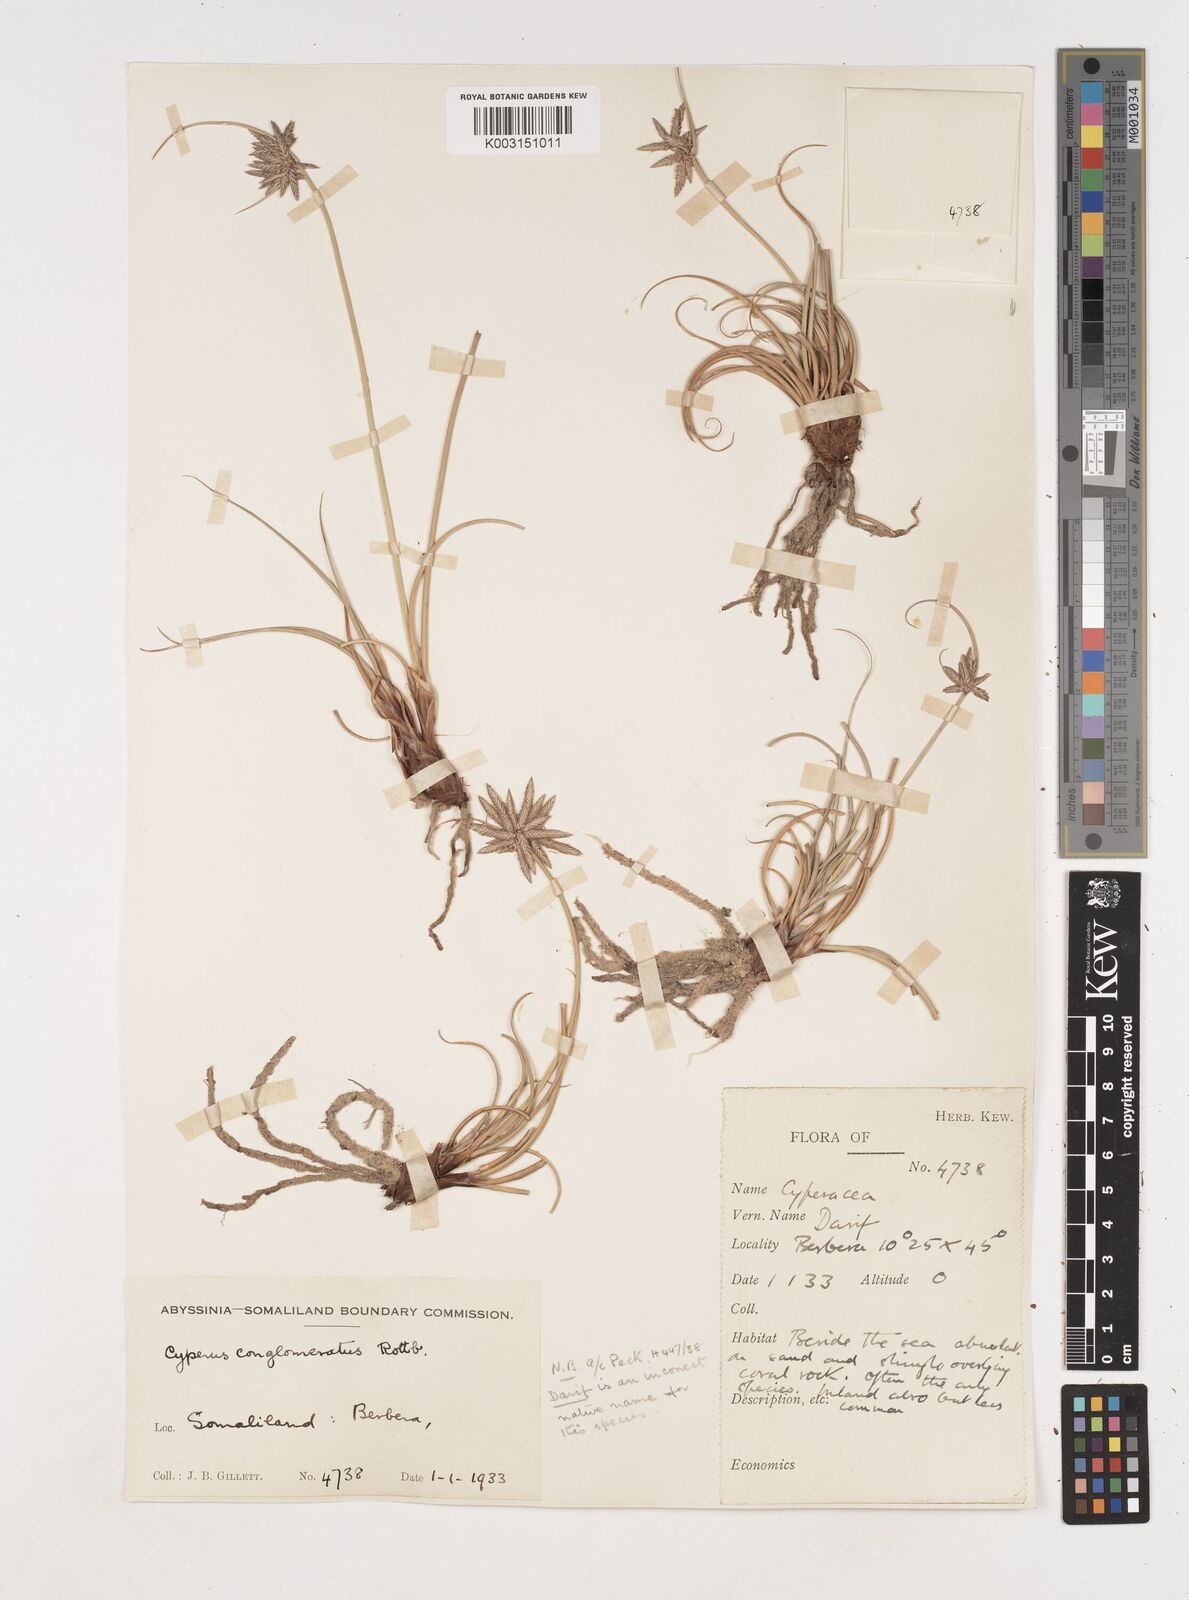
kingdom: Plantae
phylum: Tracheophyta
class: Liliopsida
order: Poales
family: Cyperaceae
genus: Cyperus
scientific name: Cyperus conglomeratus
